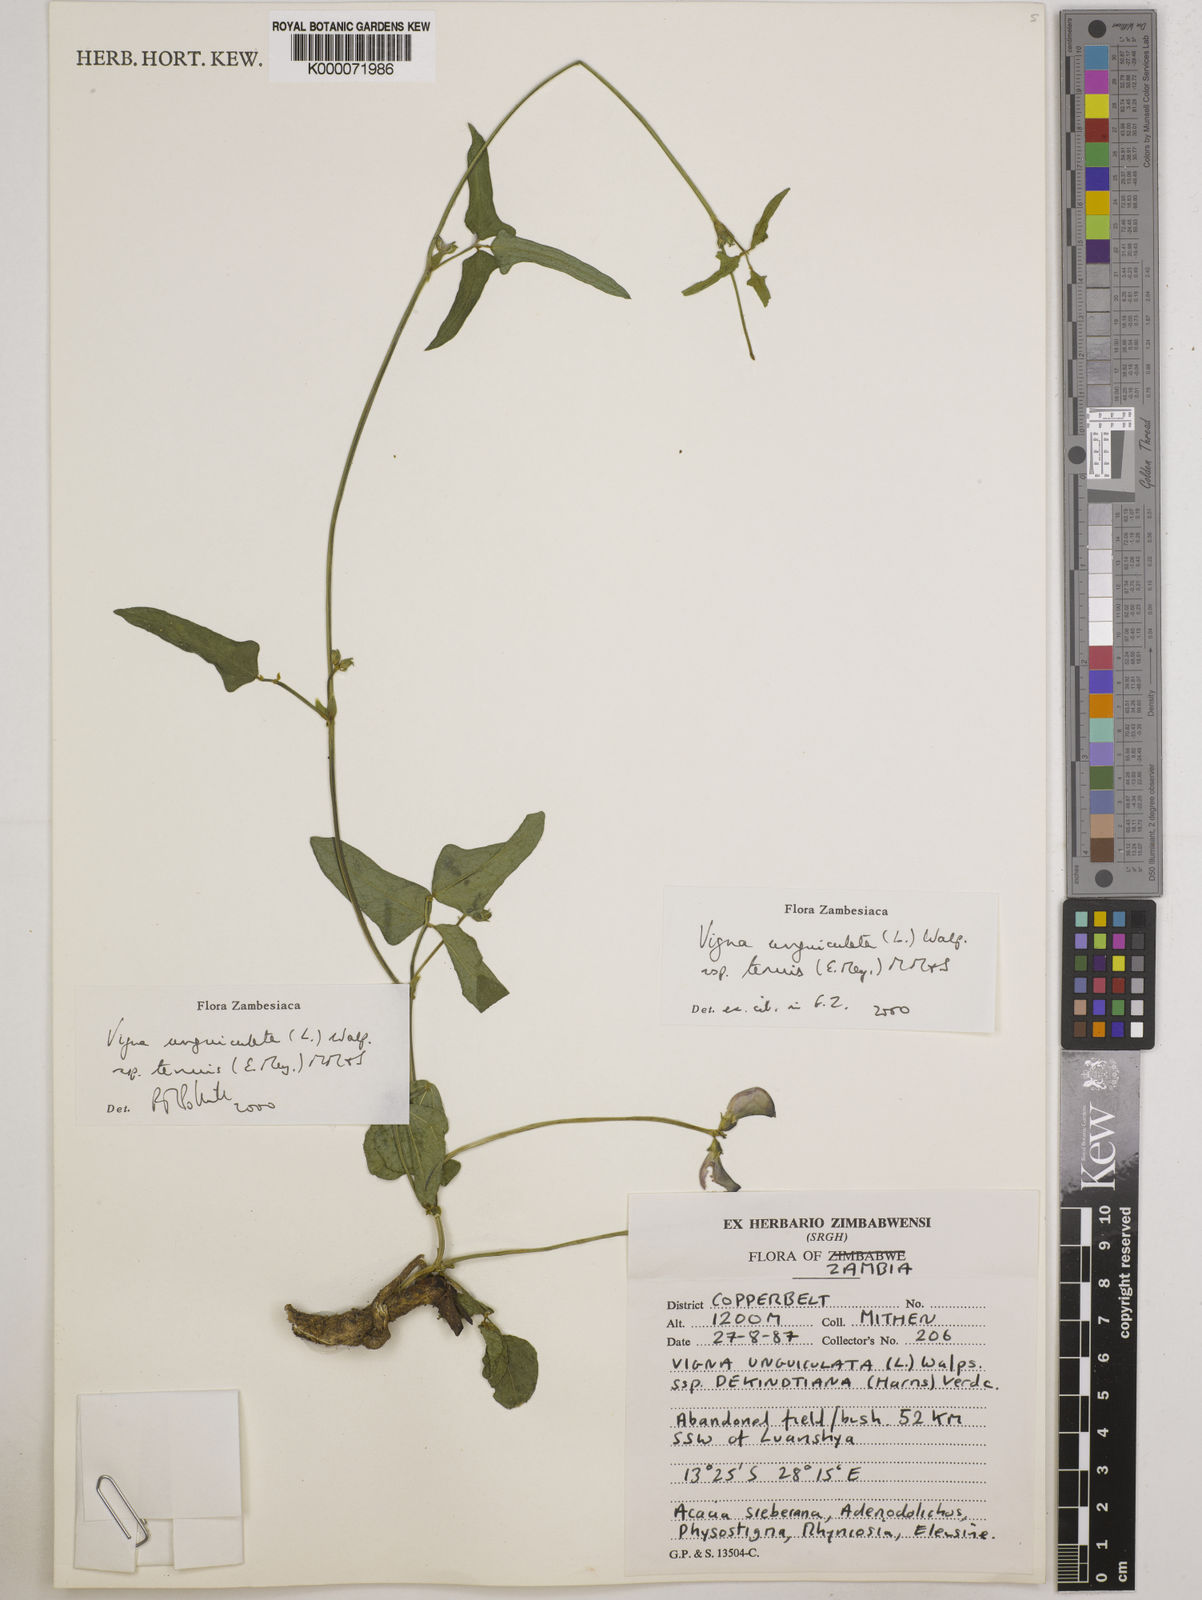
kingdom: Plantae
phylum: Tracheophyta
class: Magnoliopsida
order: Fabales
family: Fabaceae
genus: Vigna
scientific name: Vigna unguiculata
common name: Cowpea
